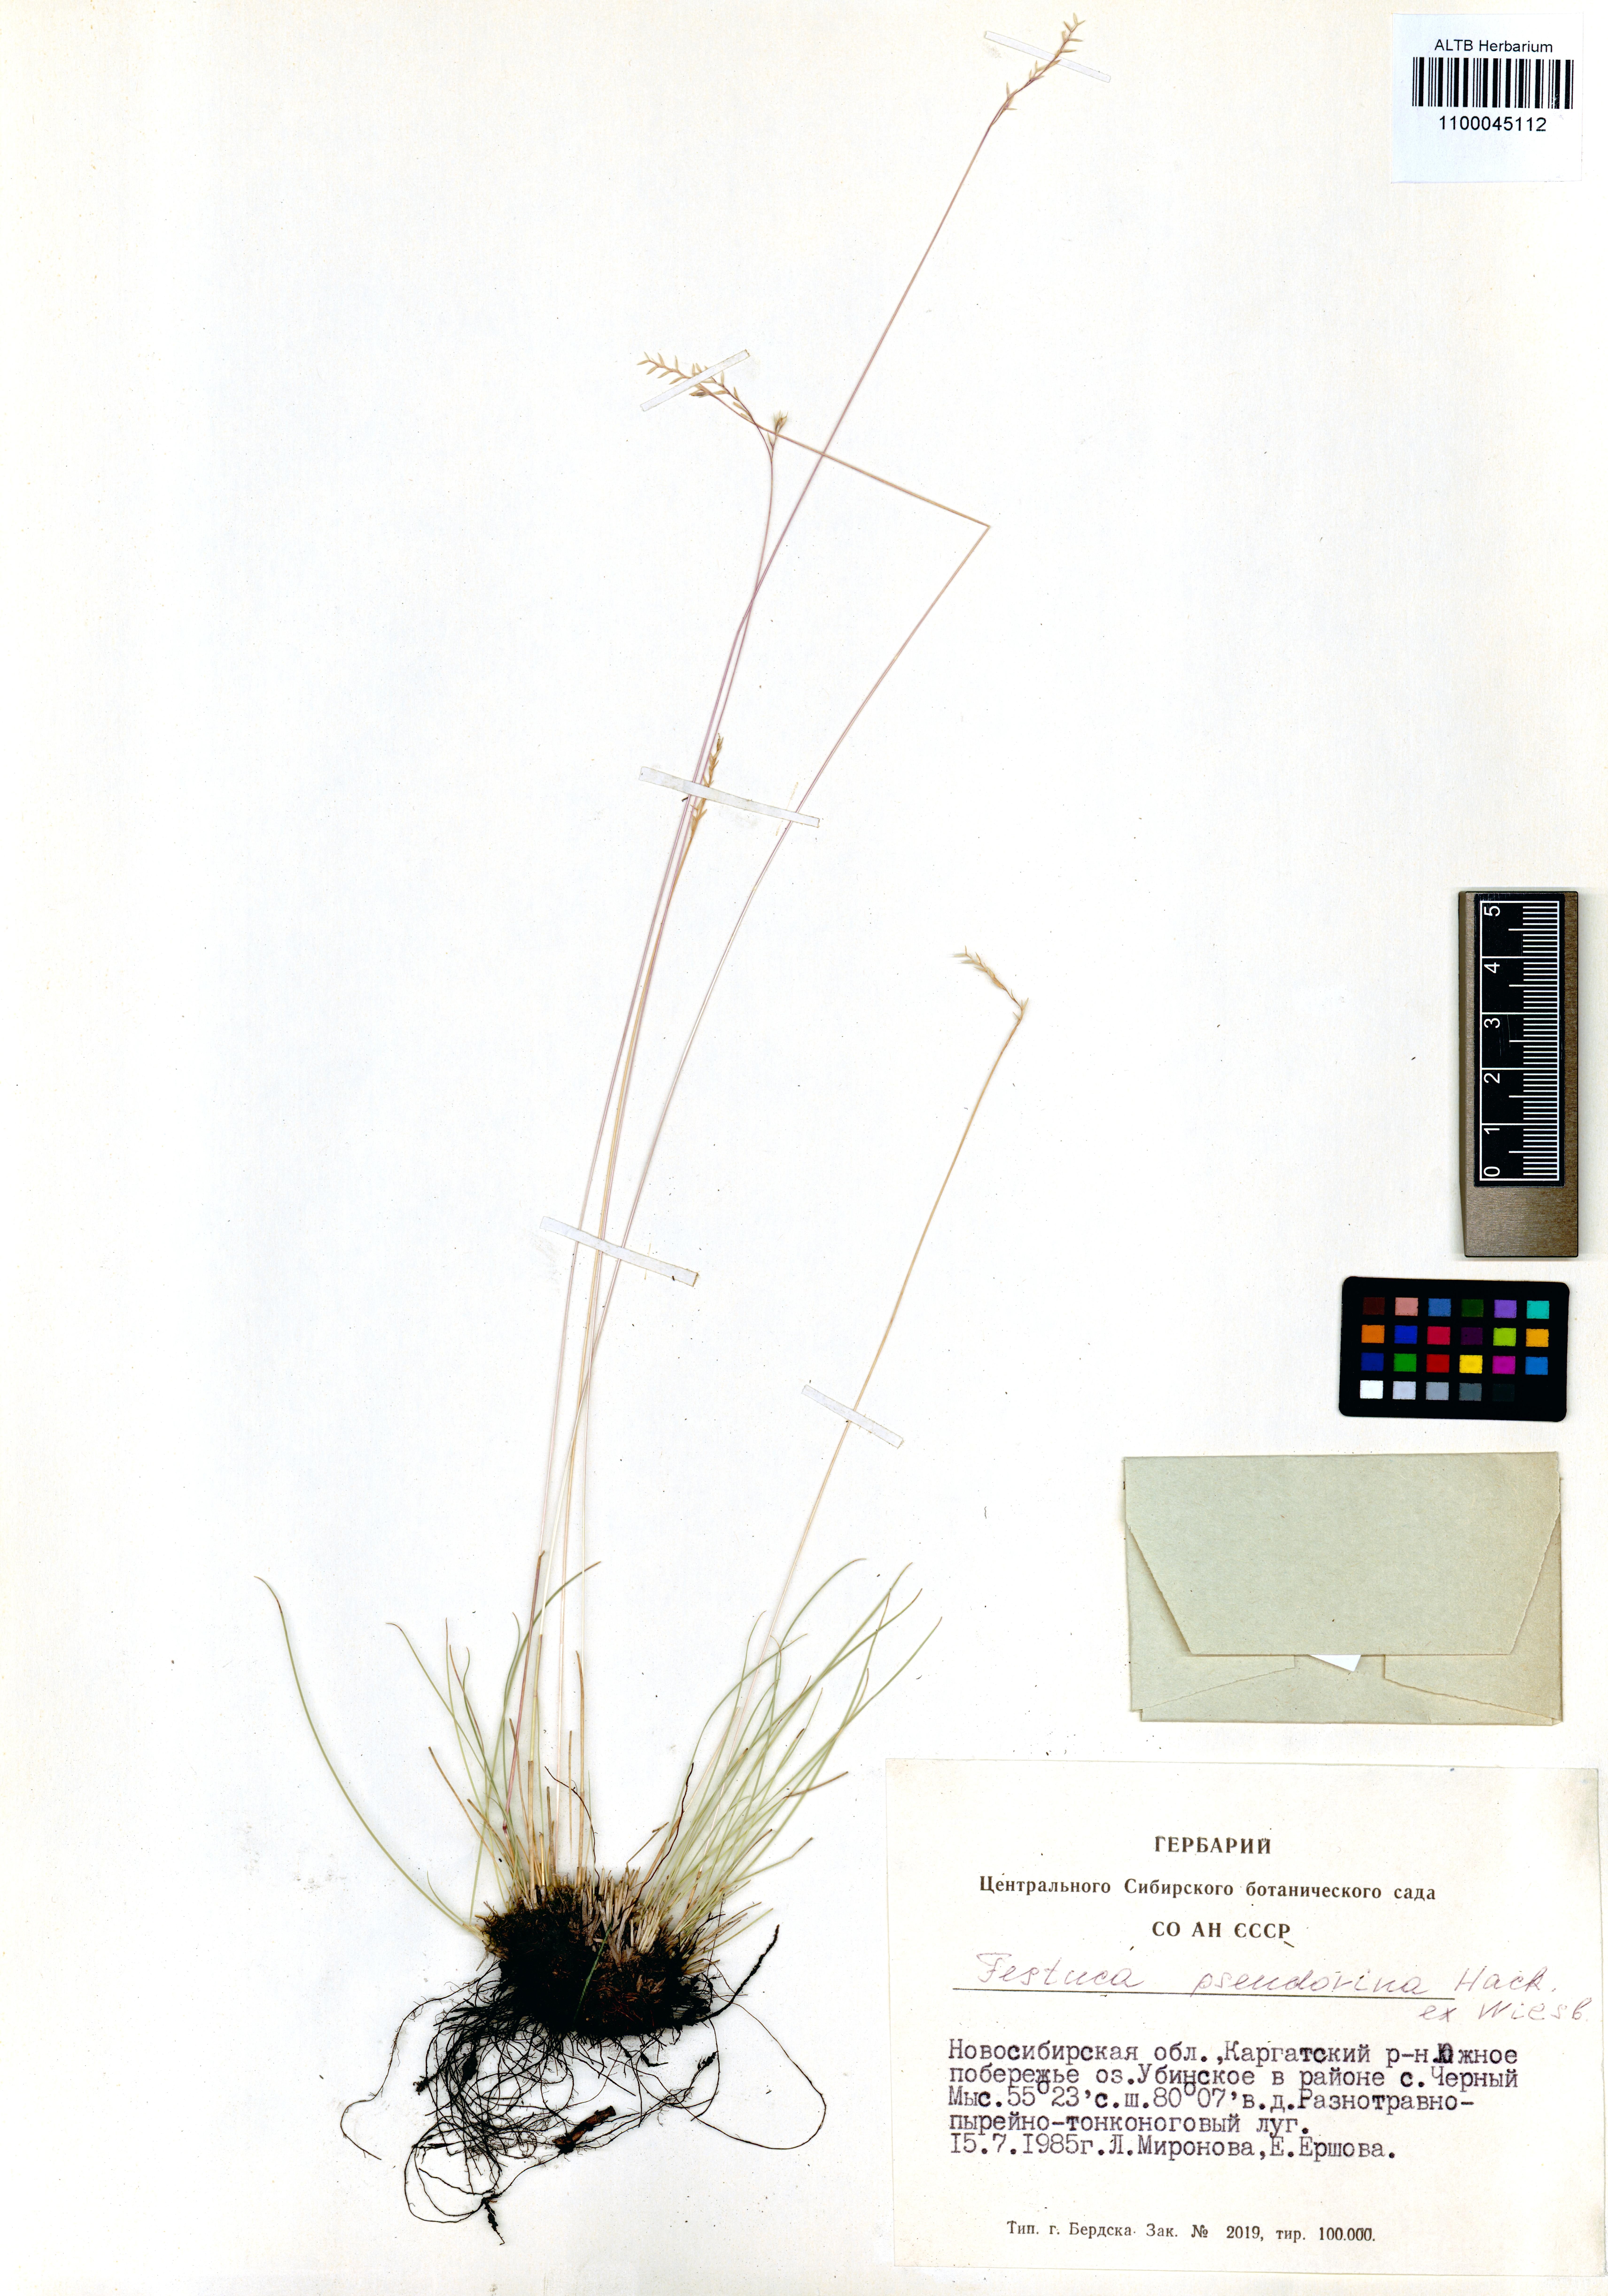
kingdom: Plantae
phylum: Tracheophyta
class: Liliopsida
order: Poales
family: Poaceae
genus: Festuca
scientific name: Festuca pulchra
